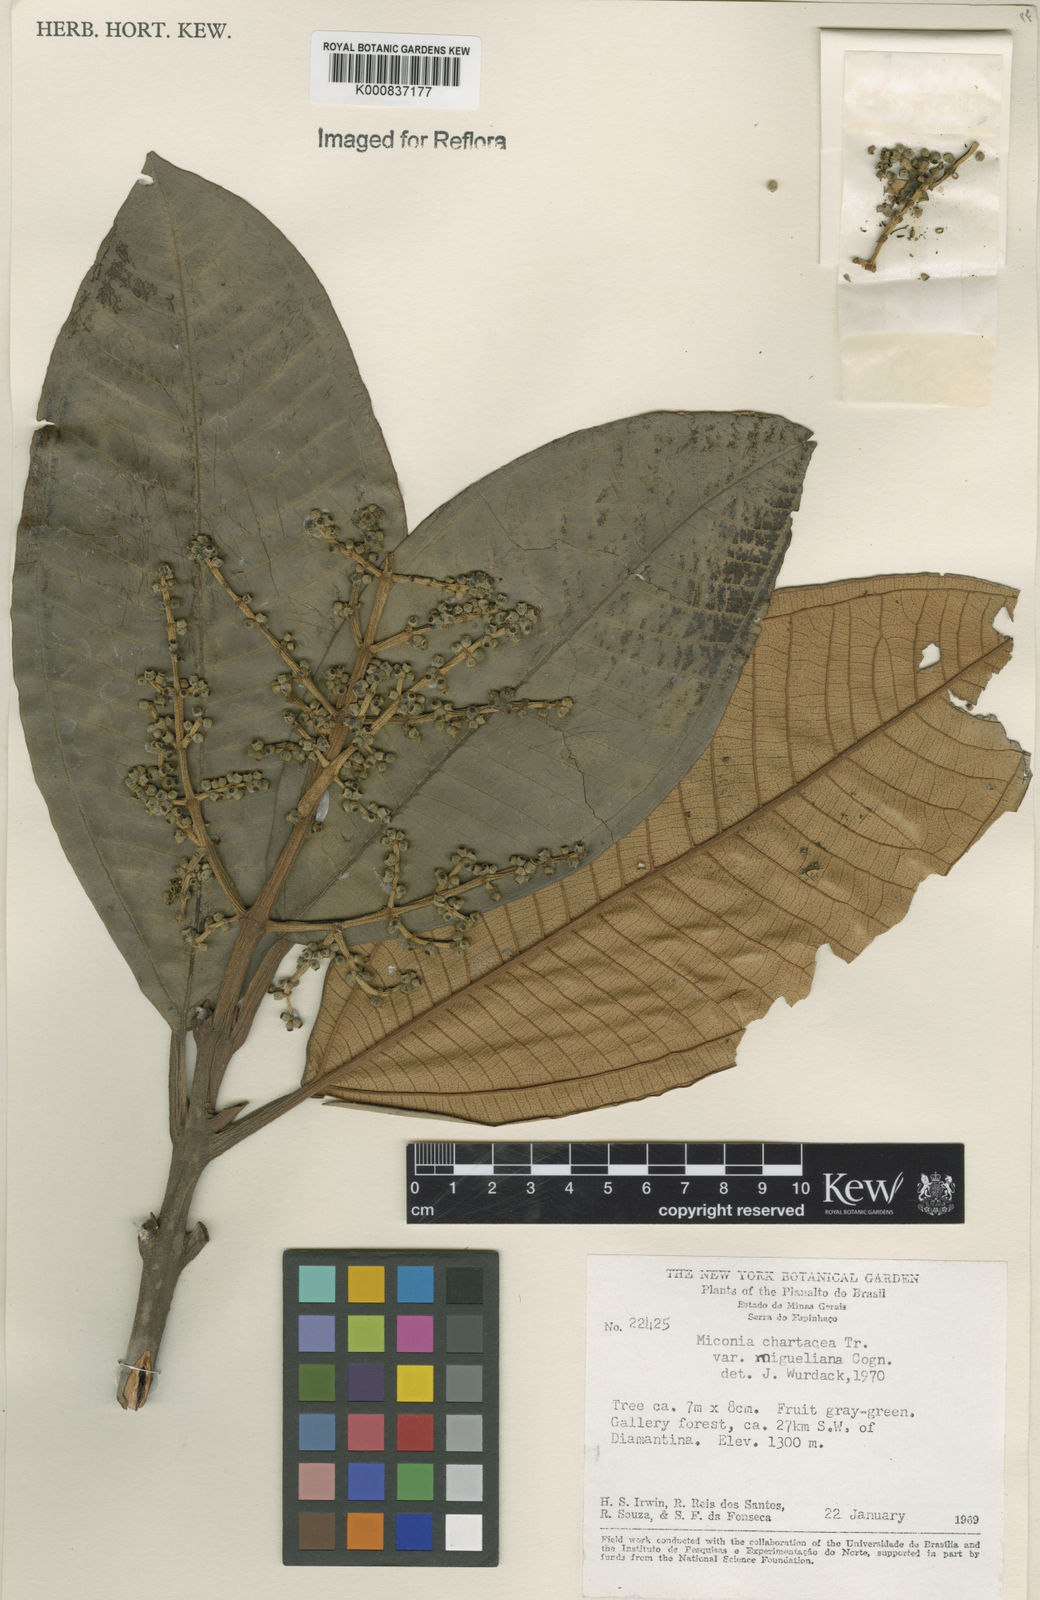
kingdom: Plantae
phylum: Tracheophyta
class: Magnoliopsida
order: Myrtales
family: Melastomataceae
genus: Miconia
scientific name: Miconia chartacea
